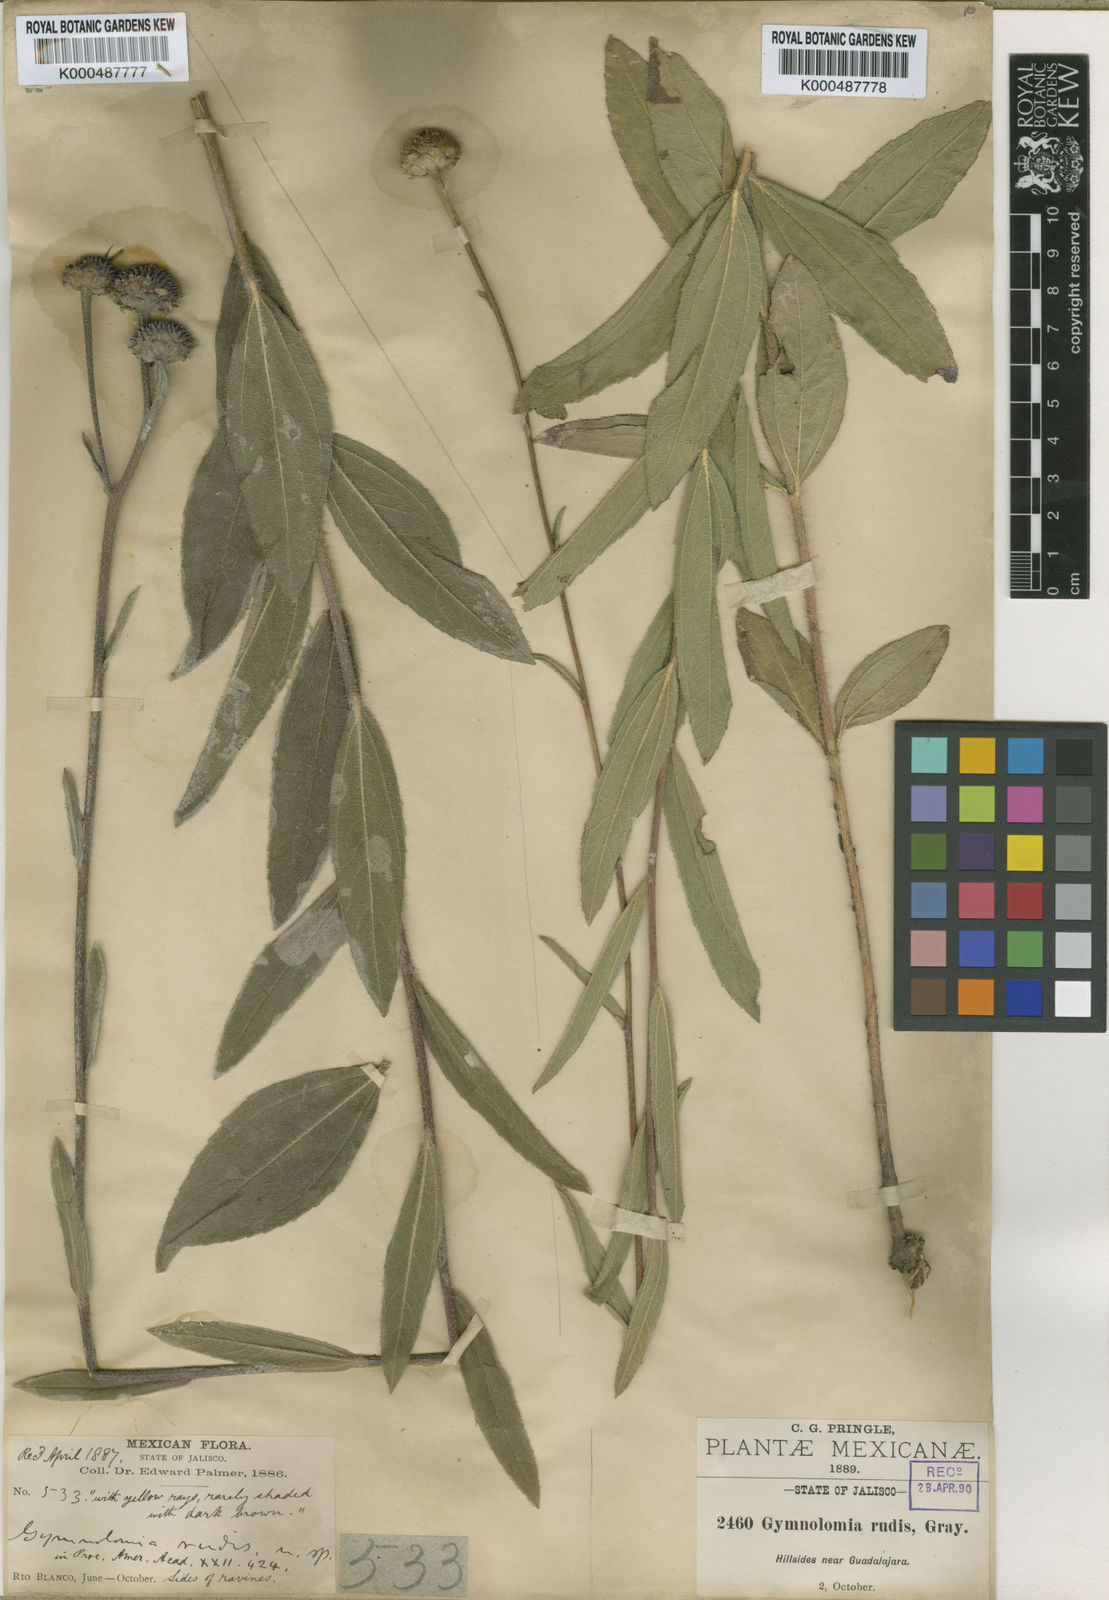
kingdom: Plantae
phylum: Tracheophyta
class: Magnoliopsida
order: Asterales
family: Asteraceae
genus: Aldama
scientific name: Aldama parkinsonii
